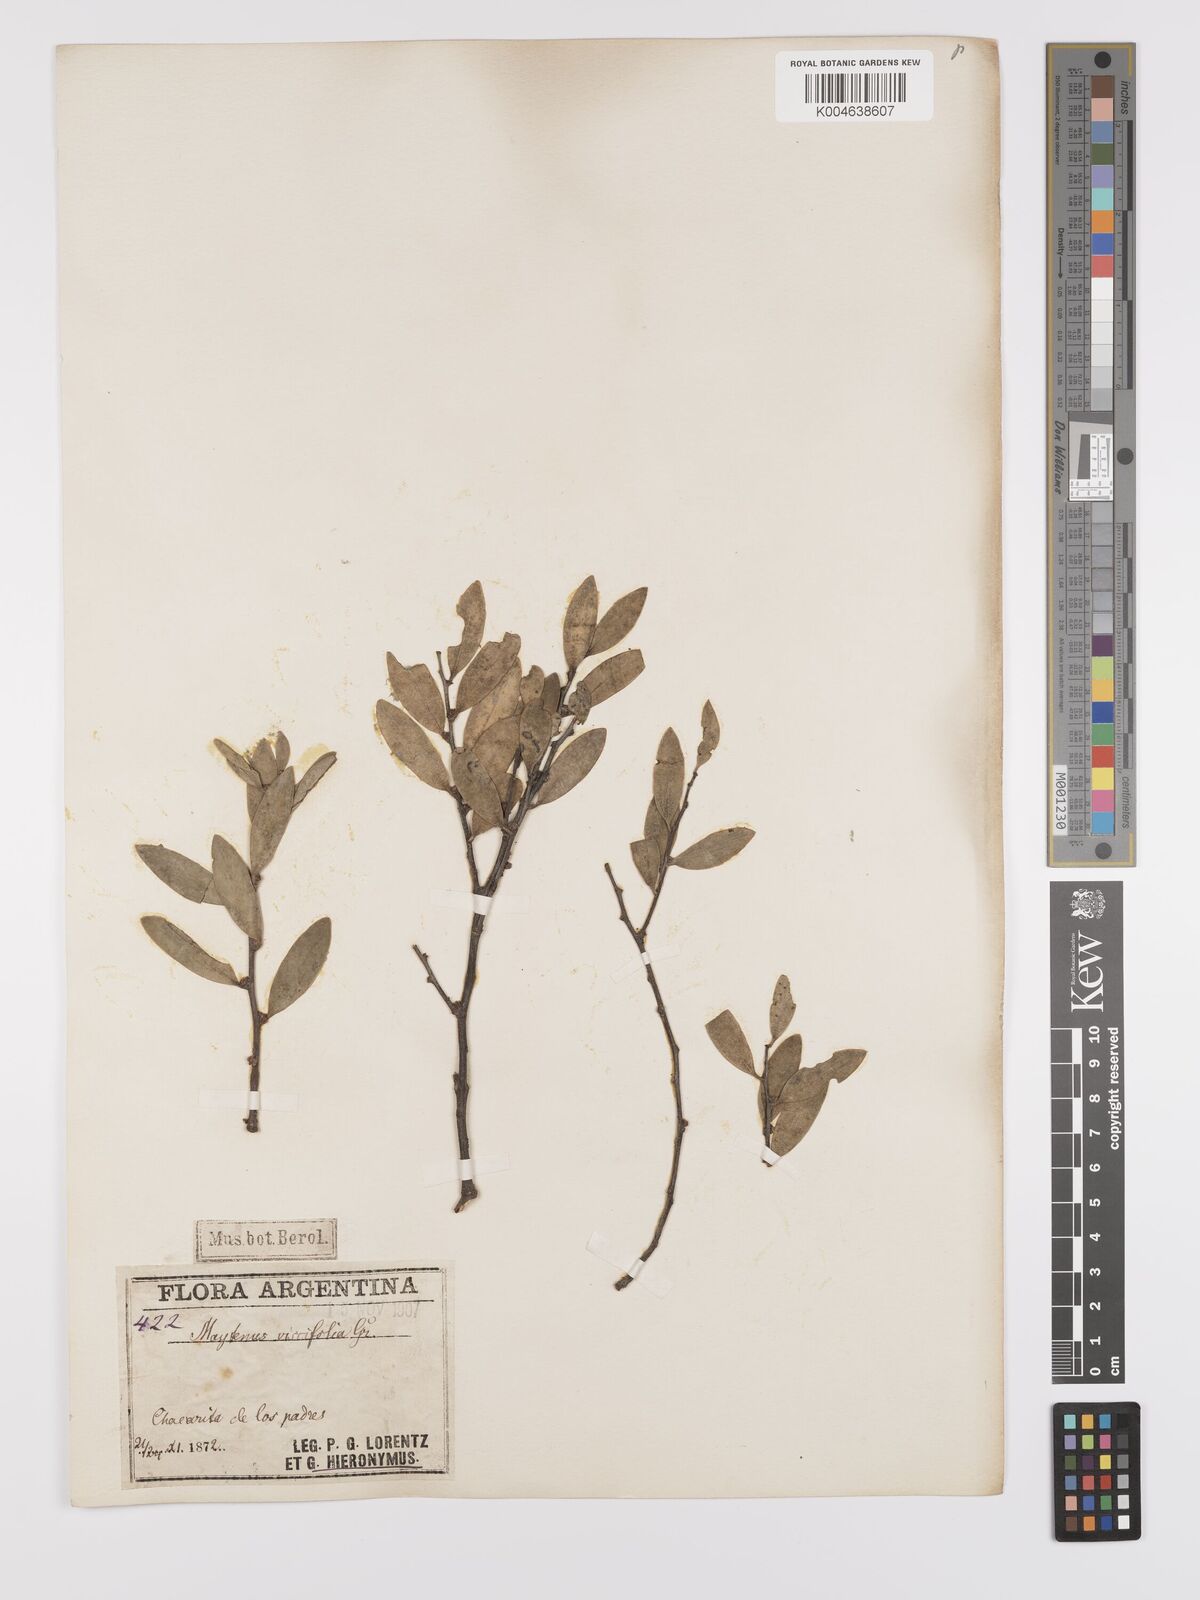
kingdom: Plantae
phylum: Tracheophyta
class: Magnoliopsida
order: Celastrales
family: Celastraceae
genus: Tricerma
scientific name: Tricerma viscifolium
